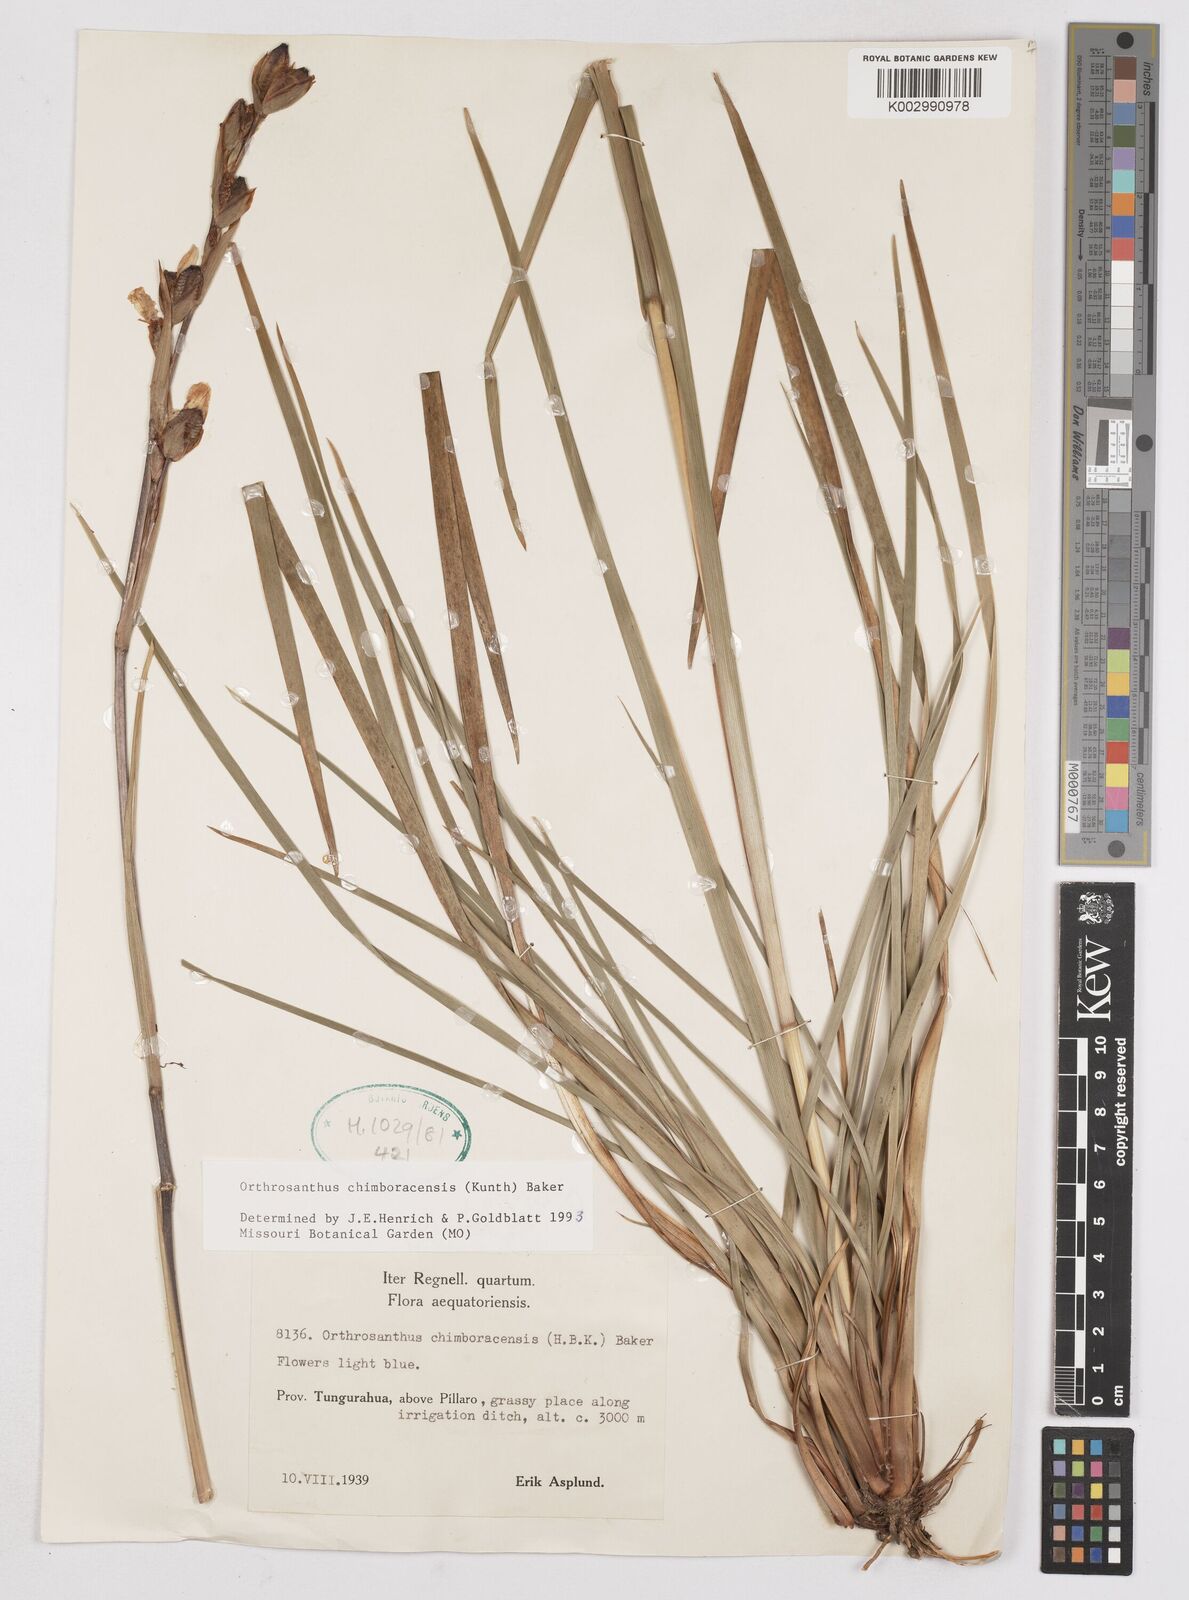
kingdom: Plantae
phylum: Tracheophyta
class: Liliopsida
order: Asparagales
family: Iridaceae
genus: Orthrosanthus
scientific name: Orthrosanthus chimboracensis
